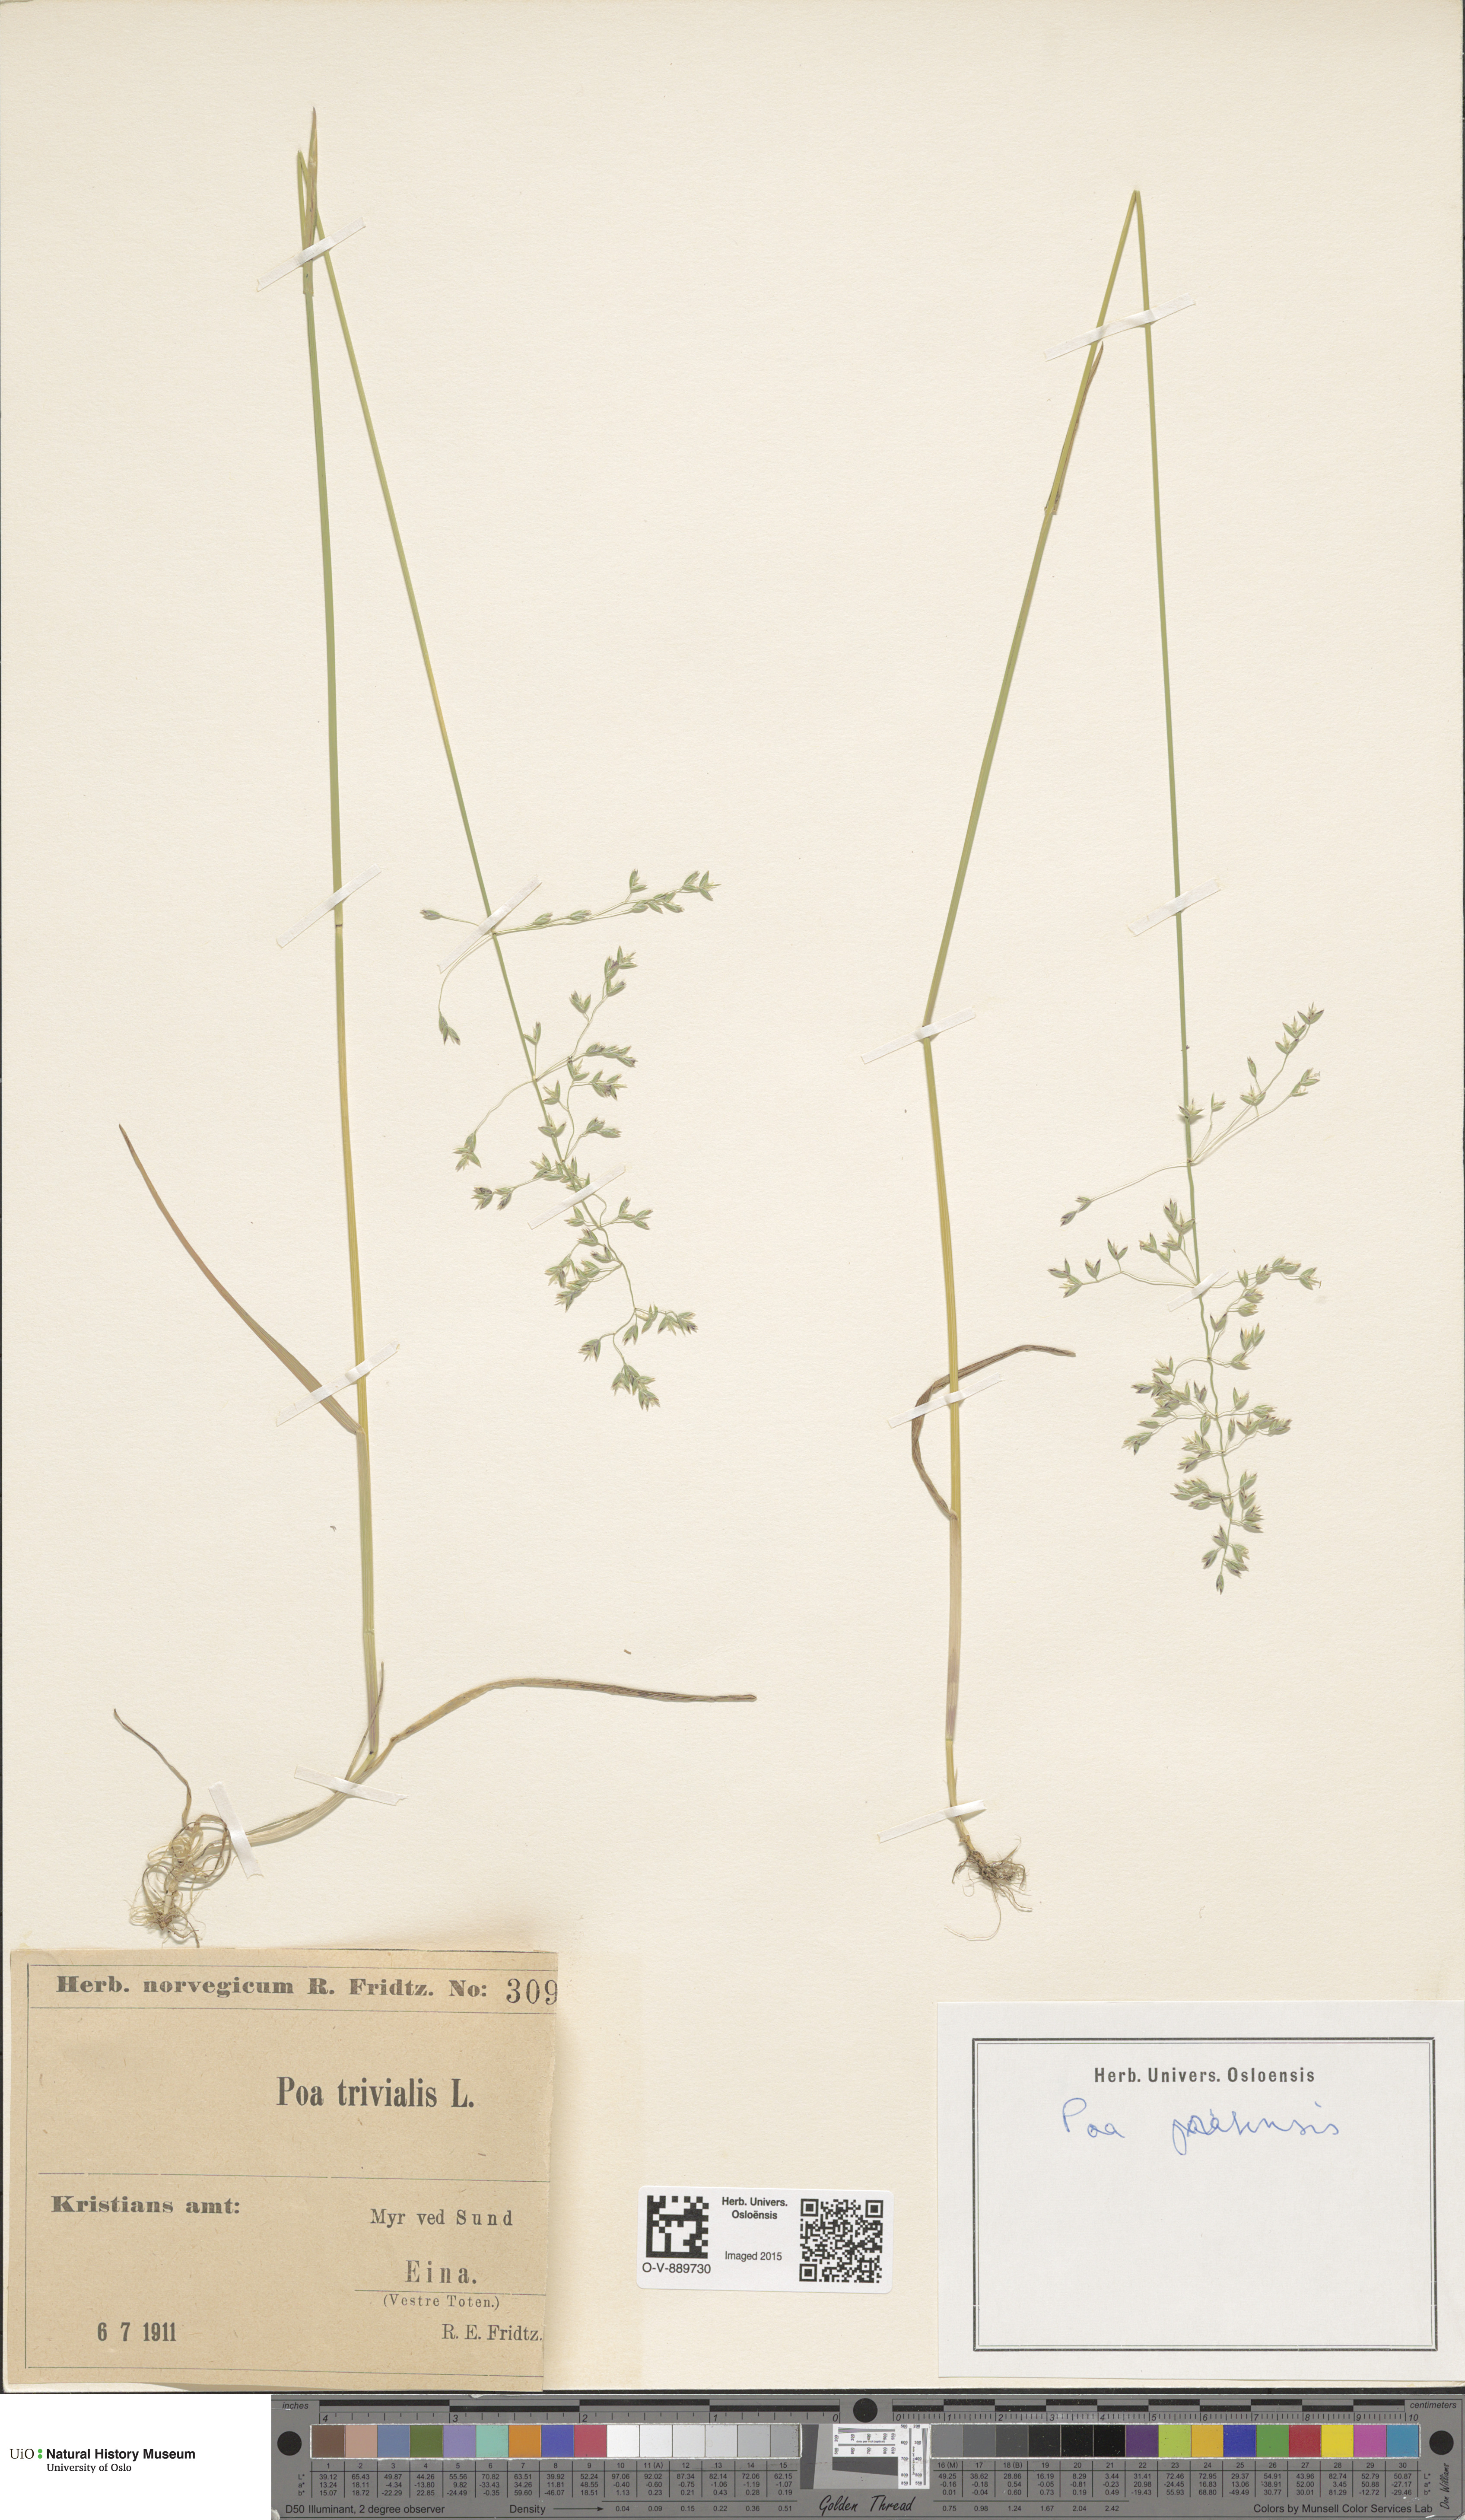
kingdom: Plantae
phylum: Tracheophyta
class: Liliopsida
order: Poales
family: Poaceae
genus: Poa
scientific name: Poa pratensis
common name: Kentucky bluegrass
